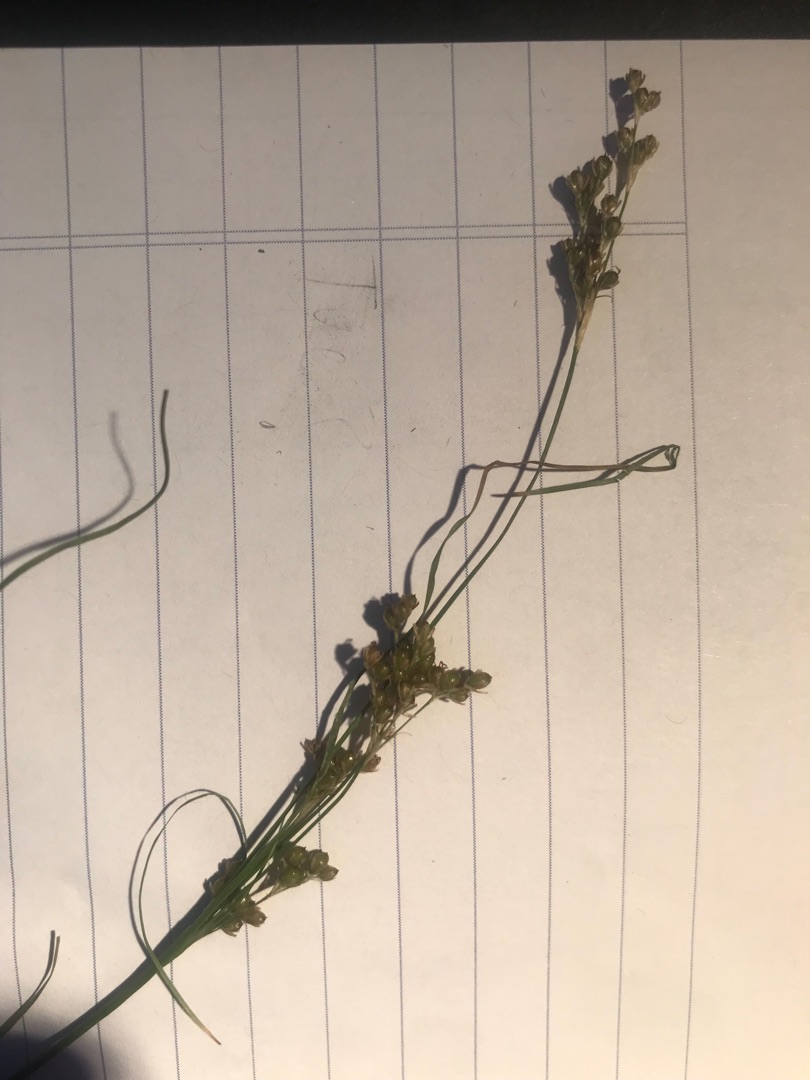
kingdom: Plantae
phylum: Tracheophyta
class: Liliopsida
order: Poales
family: Juncaceae
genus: Juncus
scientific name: Juncus compressus
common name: Fladstrået siv
